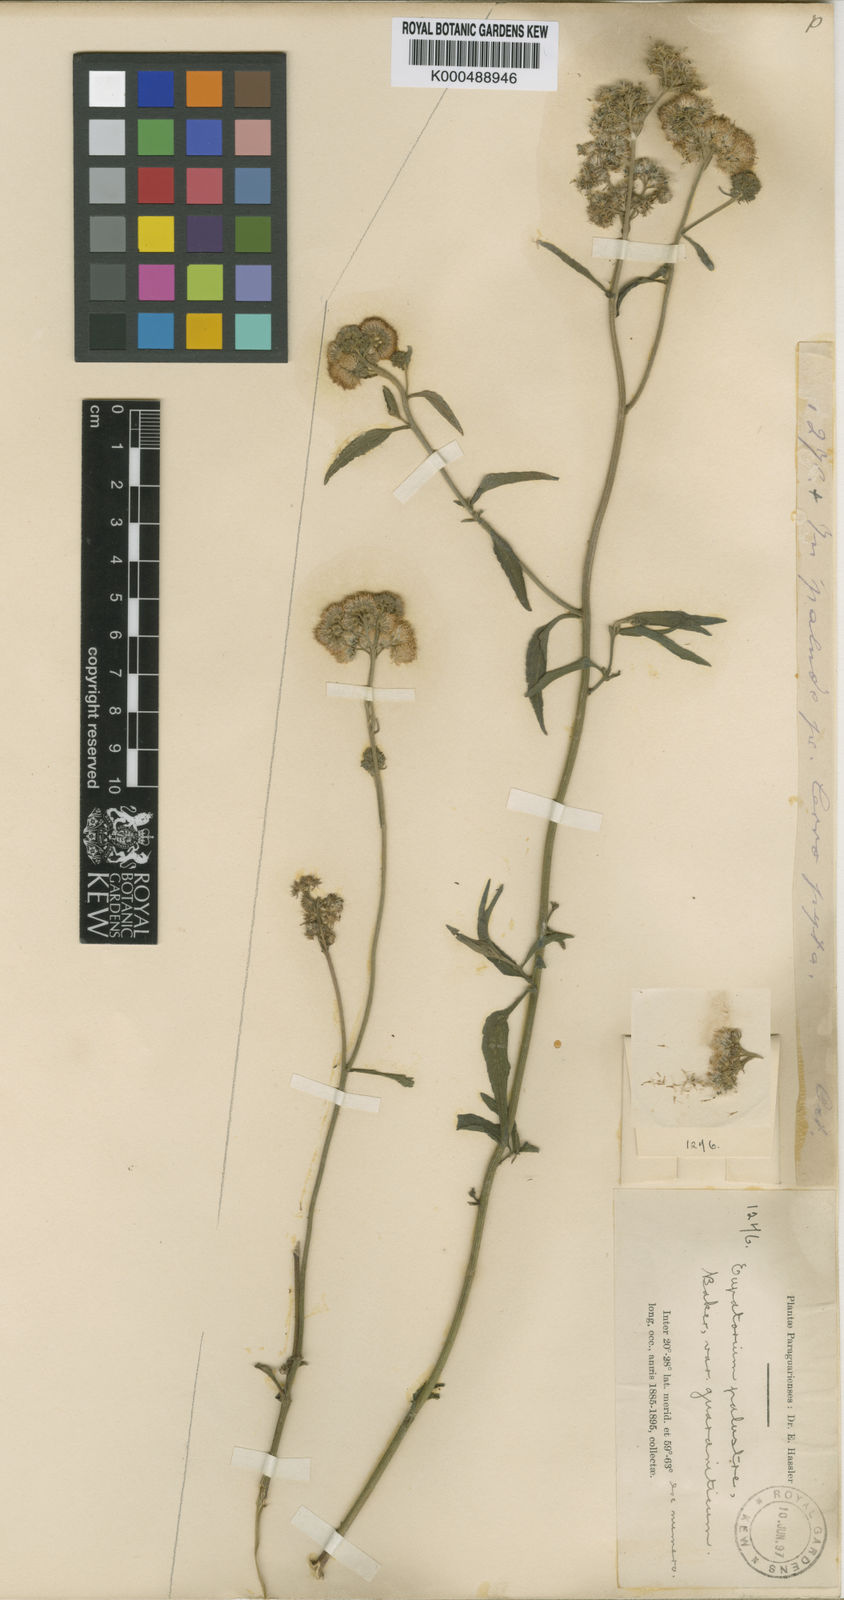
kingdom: Plantae
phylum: Tracheophyta
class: Magnoliopsida
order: Asterales
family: Asteraceae
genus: Barrosoa
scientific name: Barrosoa candolleana
